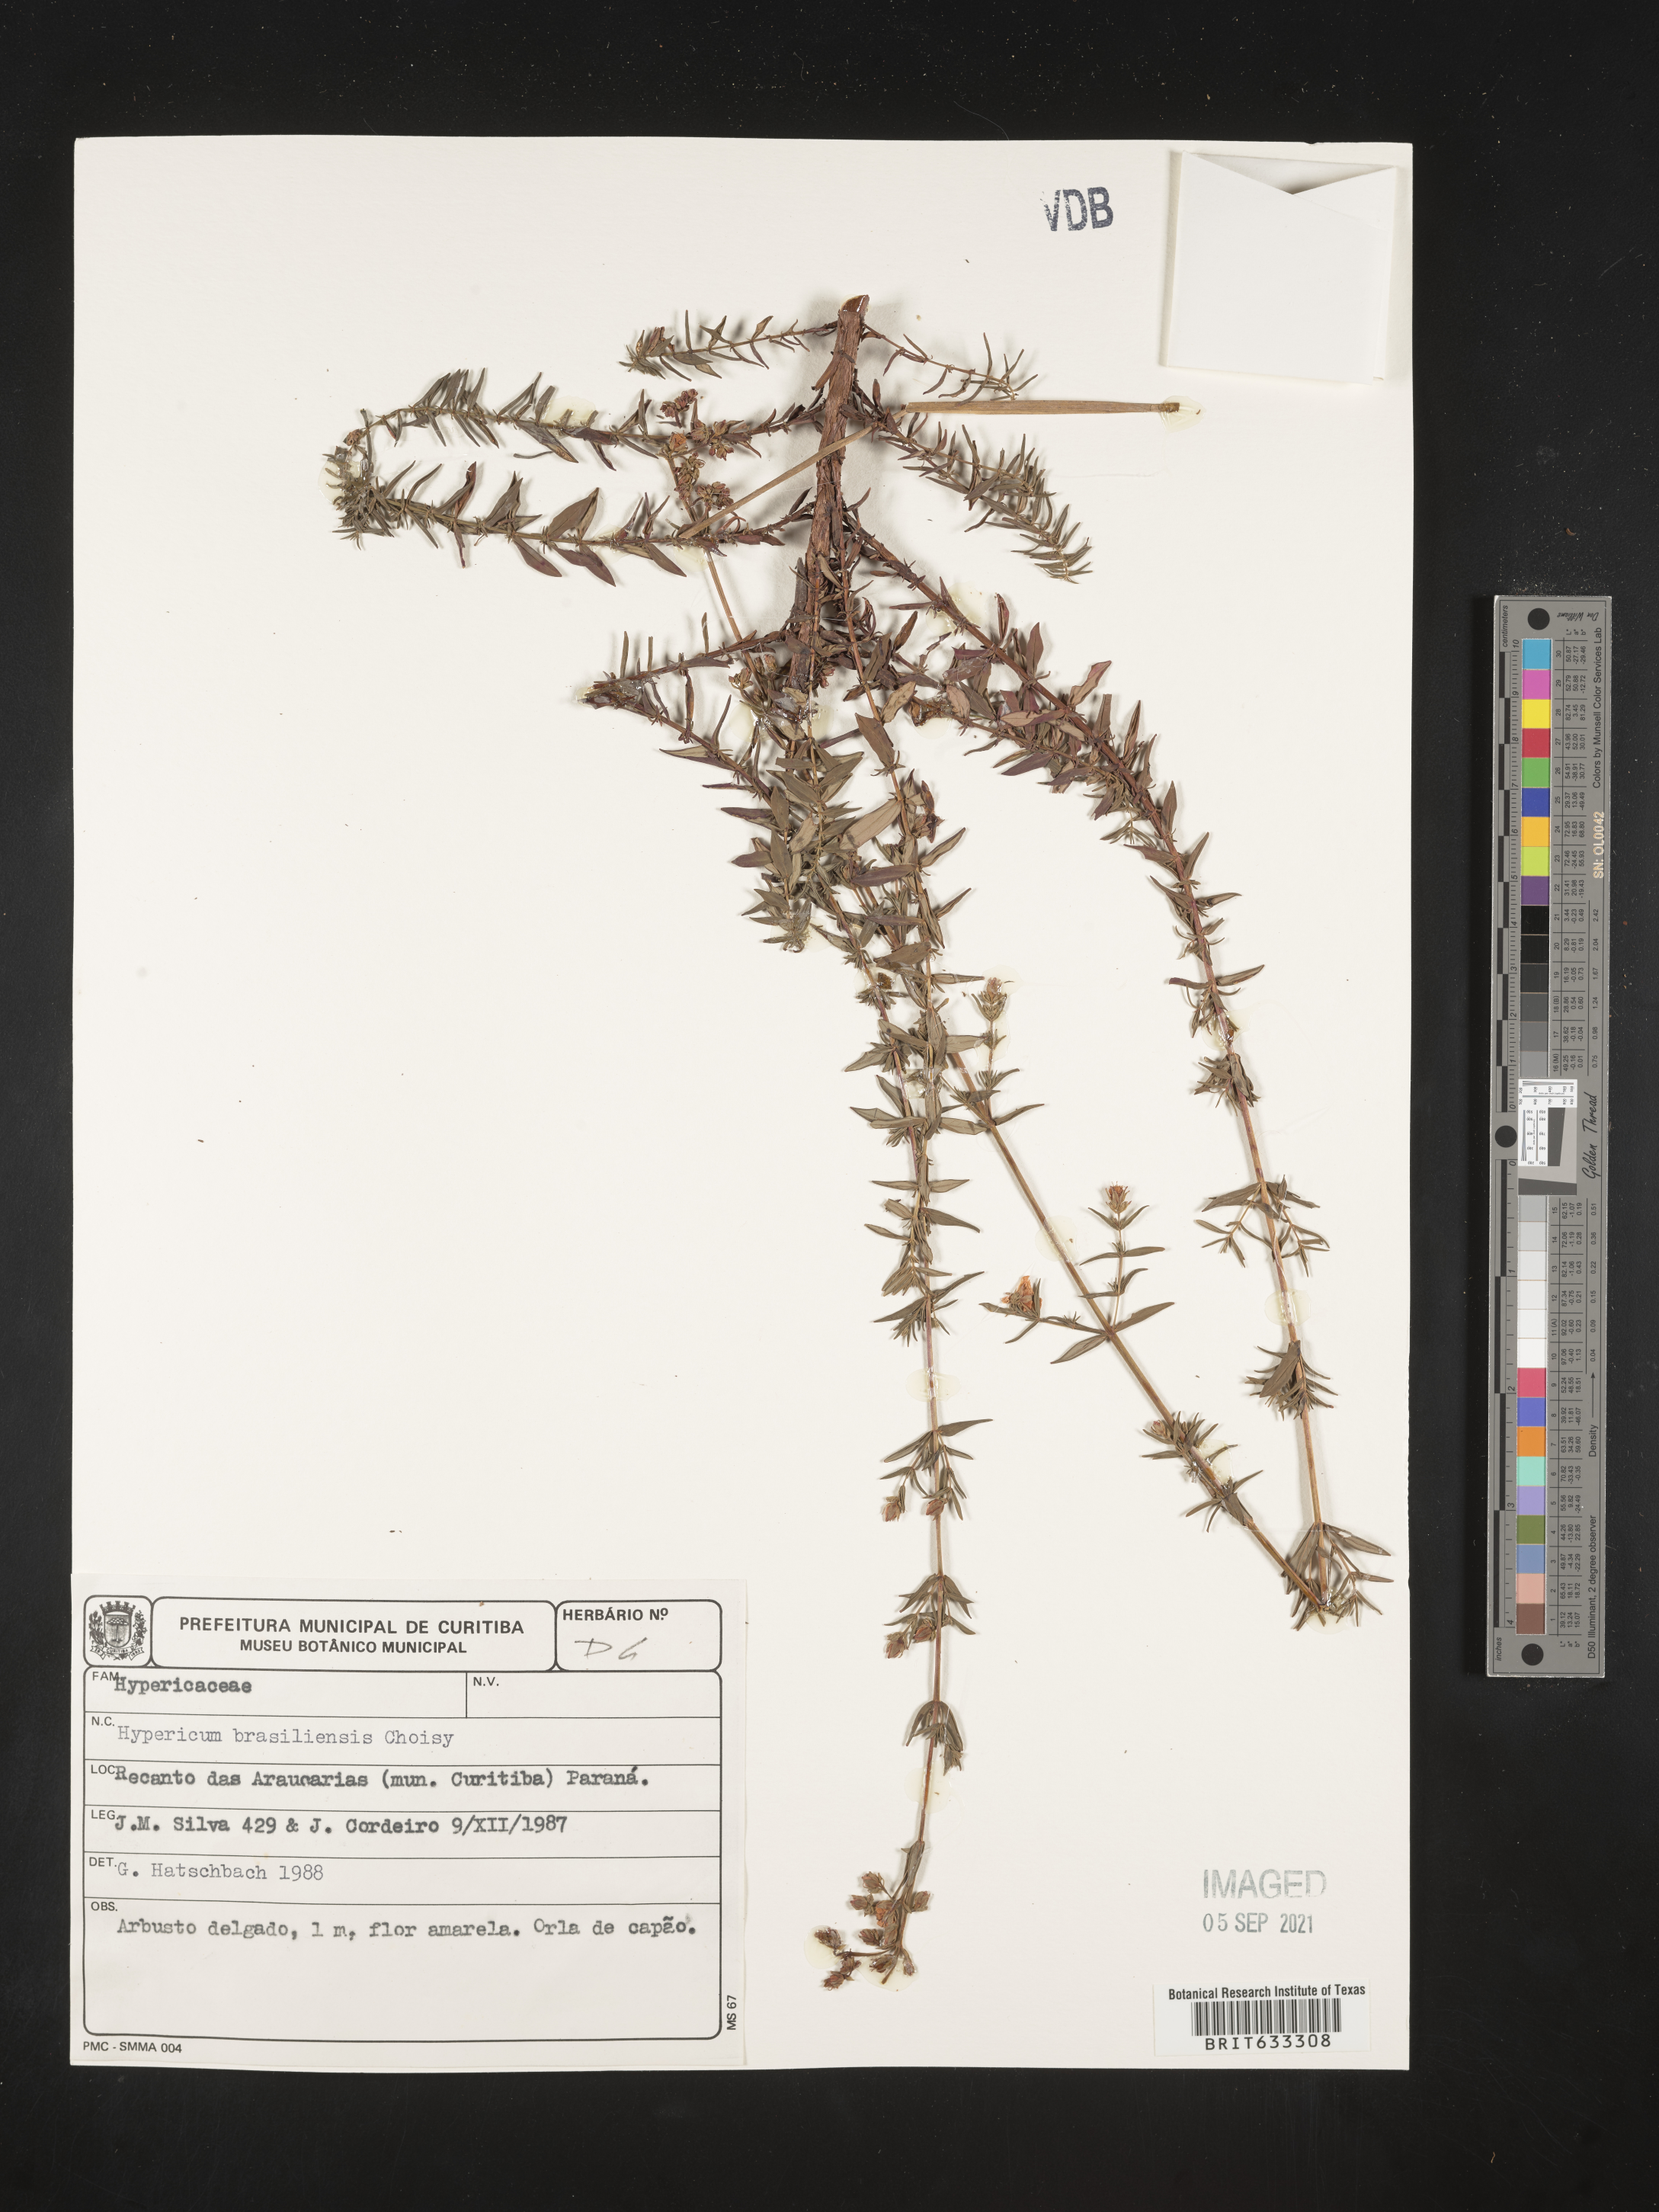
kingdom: Plantae
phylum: Tracheophyta
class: Magnoliopsida
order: Malpighiales
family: Hypericaceae
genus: Hypericum
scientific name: Hypericum
